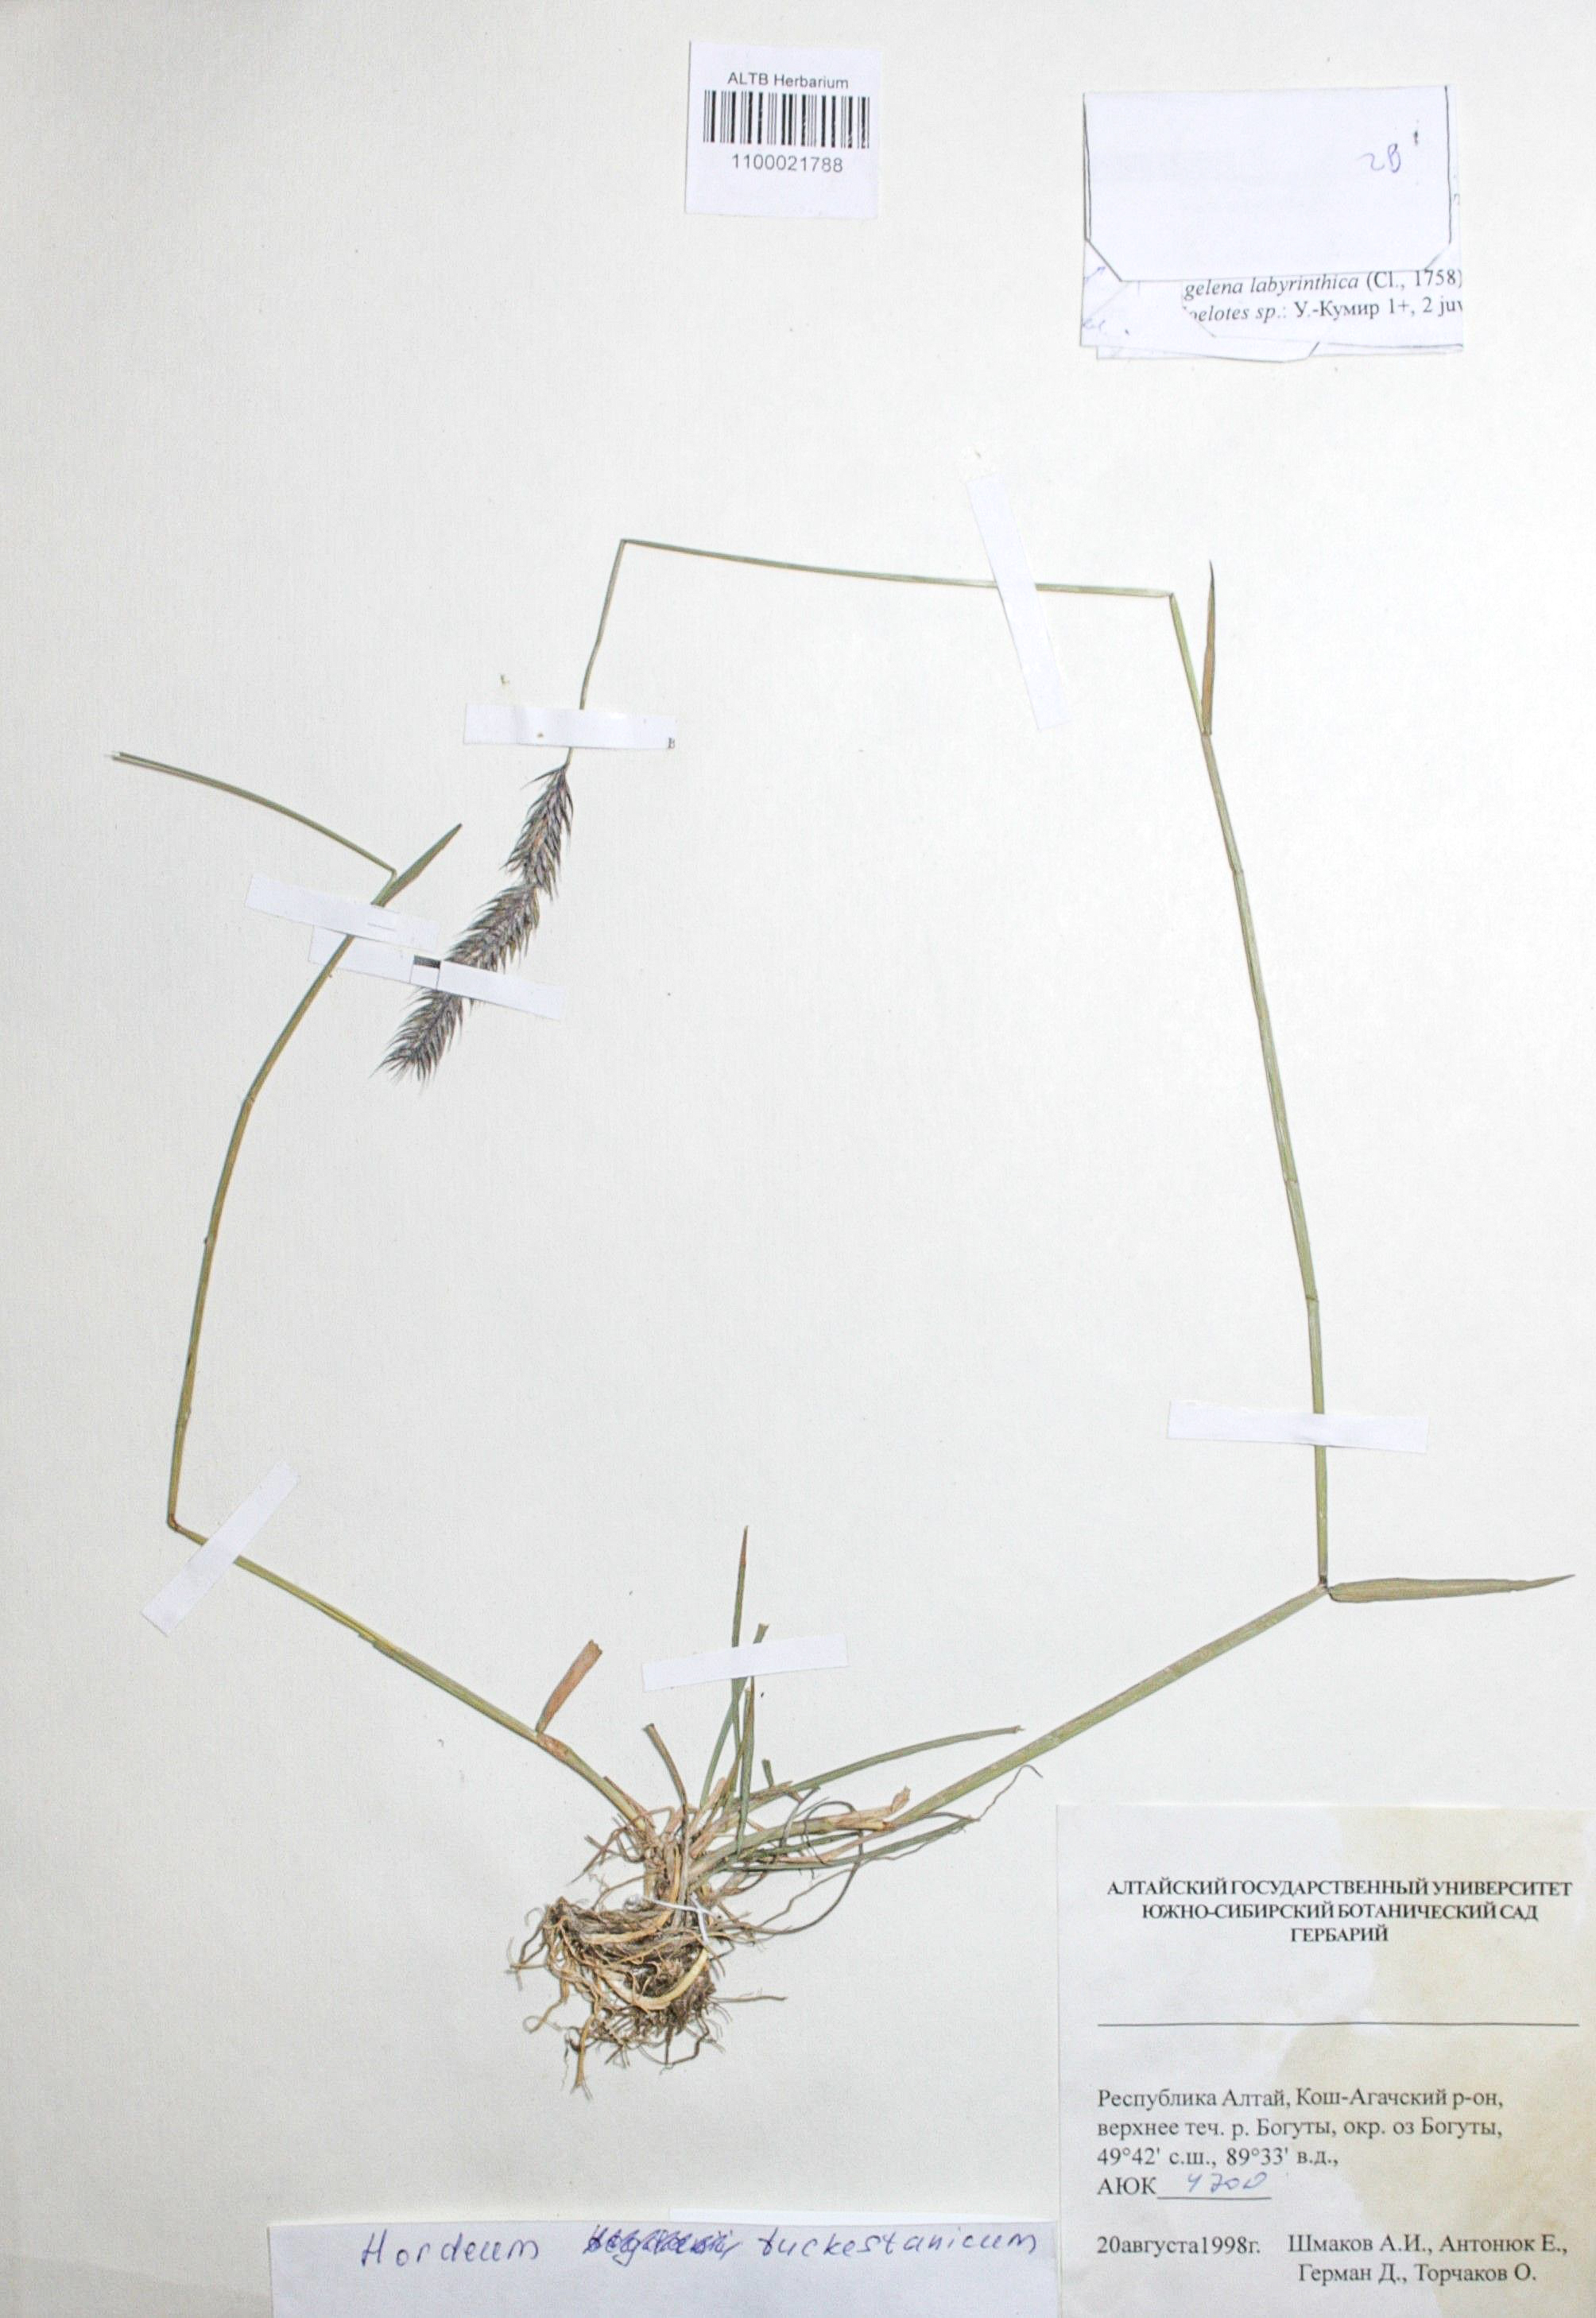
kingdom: Plantae
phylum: Tracheophyta
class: Liliopsida
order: Poales
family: Poaceae
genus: Hordeum
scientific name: Hordeum brevisubulatum
